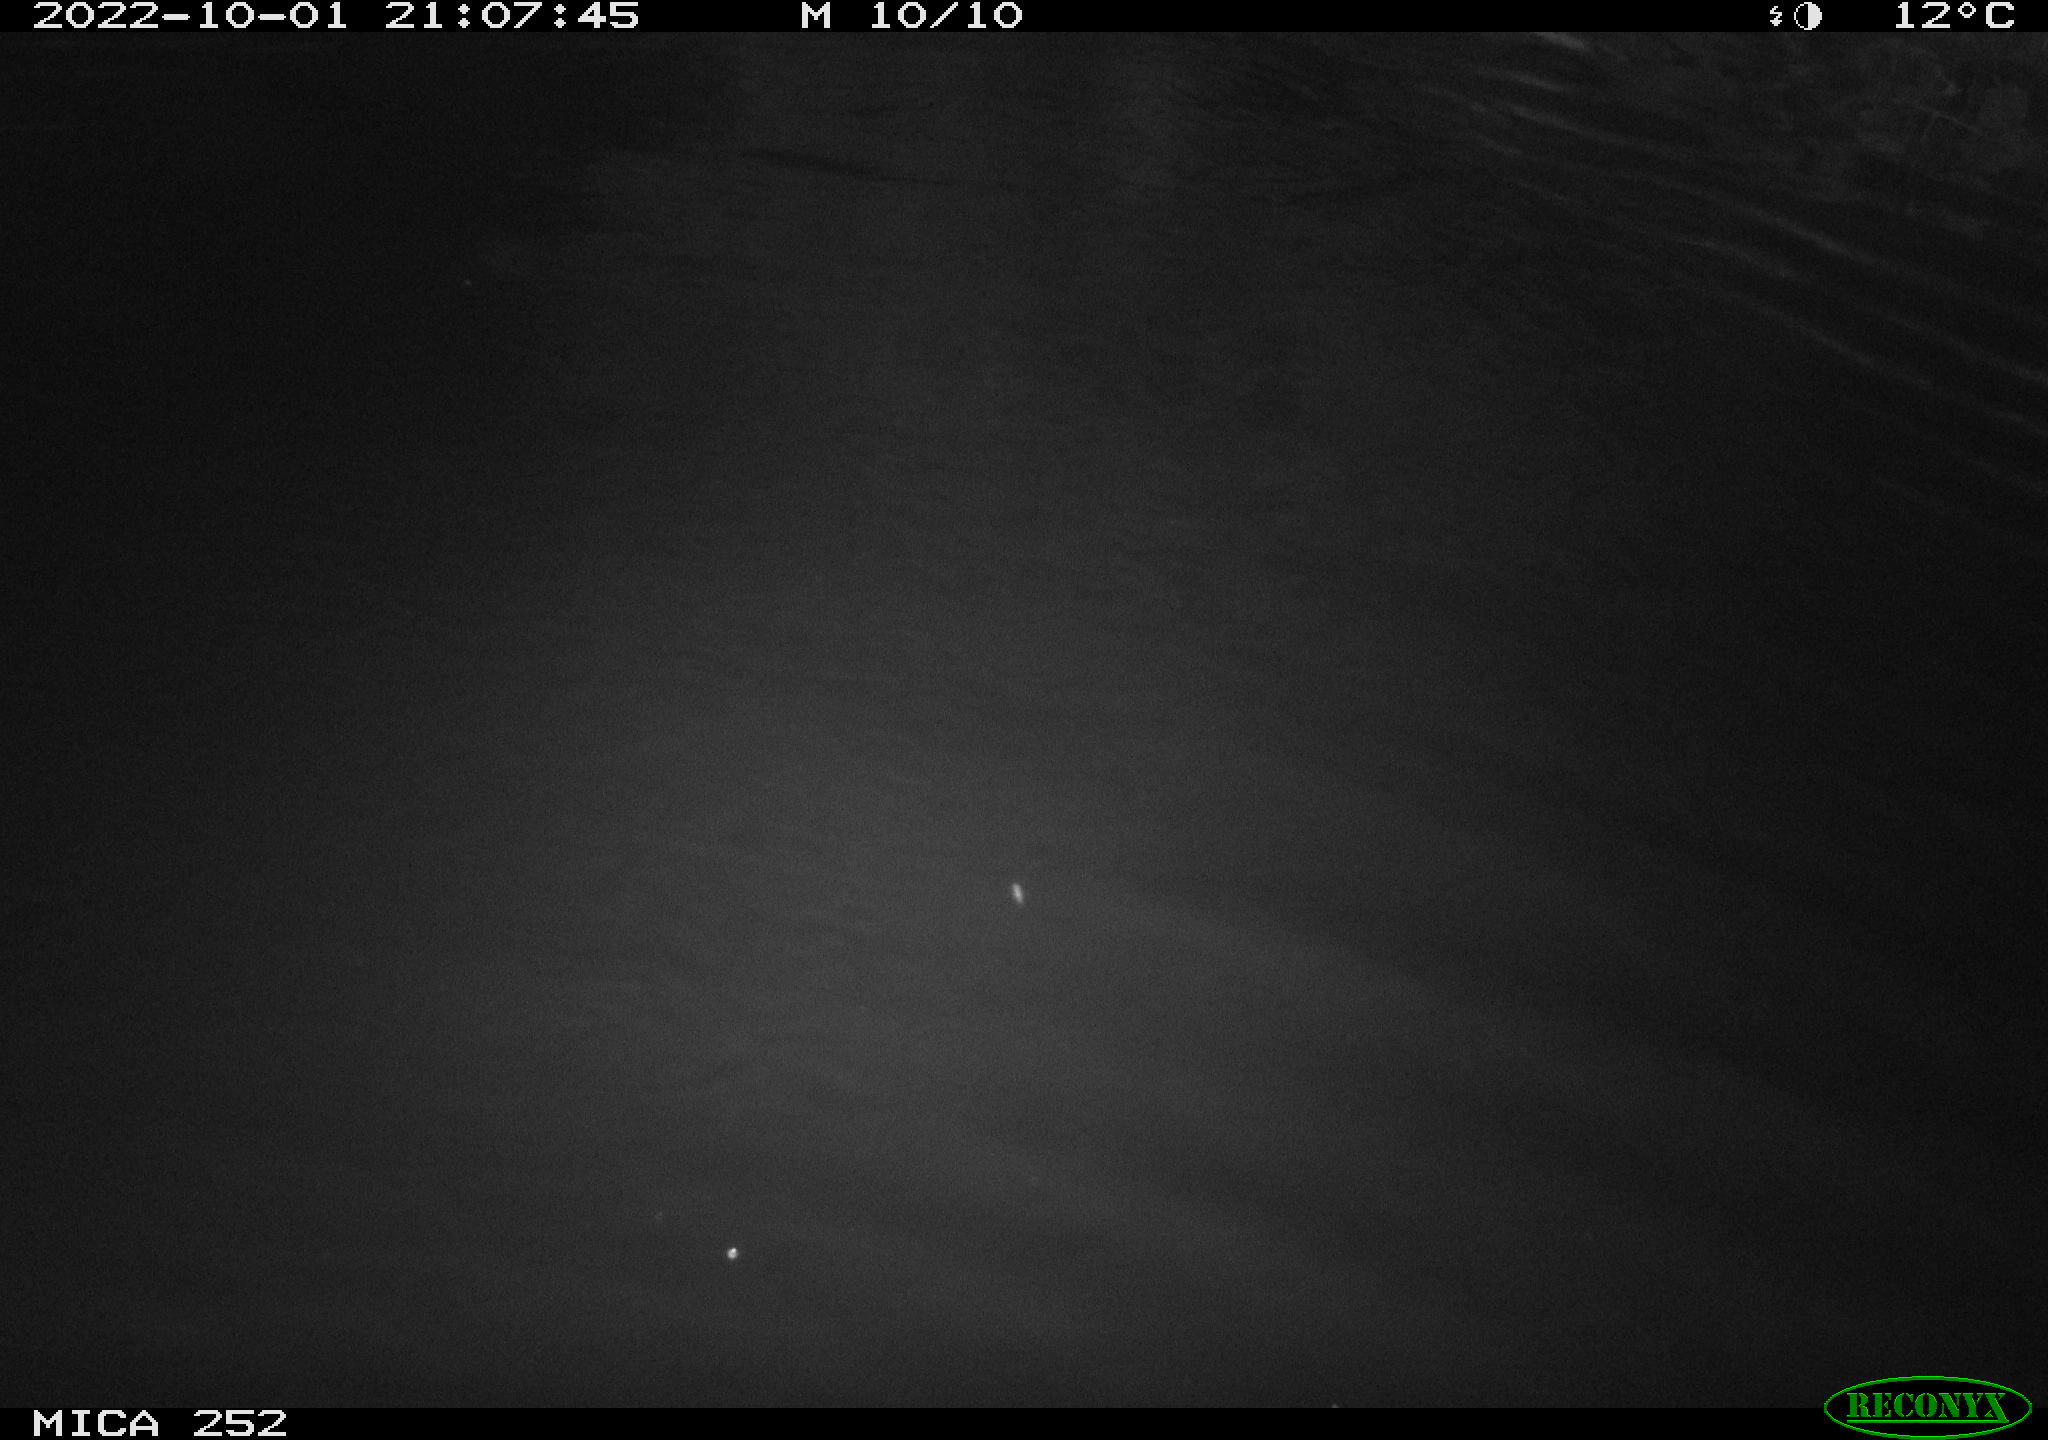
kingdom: Animalia
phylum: Chordata
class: Mammalia
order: Rodentia
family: Castoridae
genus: Castor
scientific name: Castor fiber
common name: Eurasian beaver
